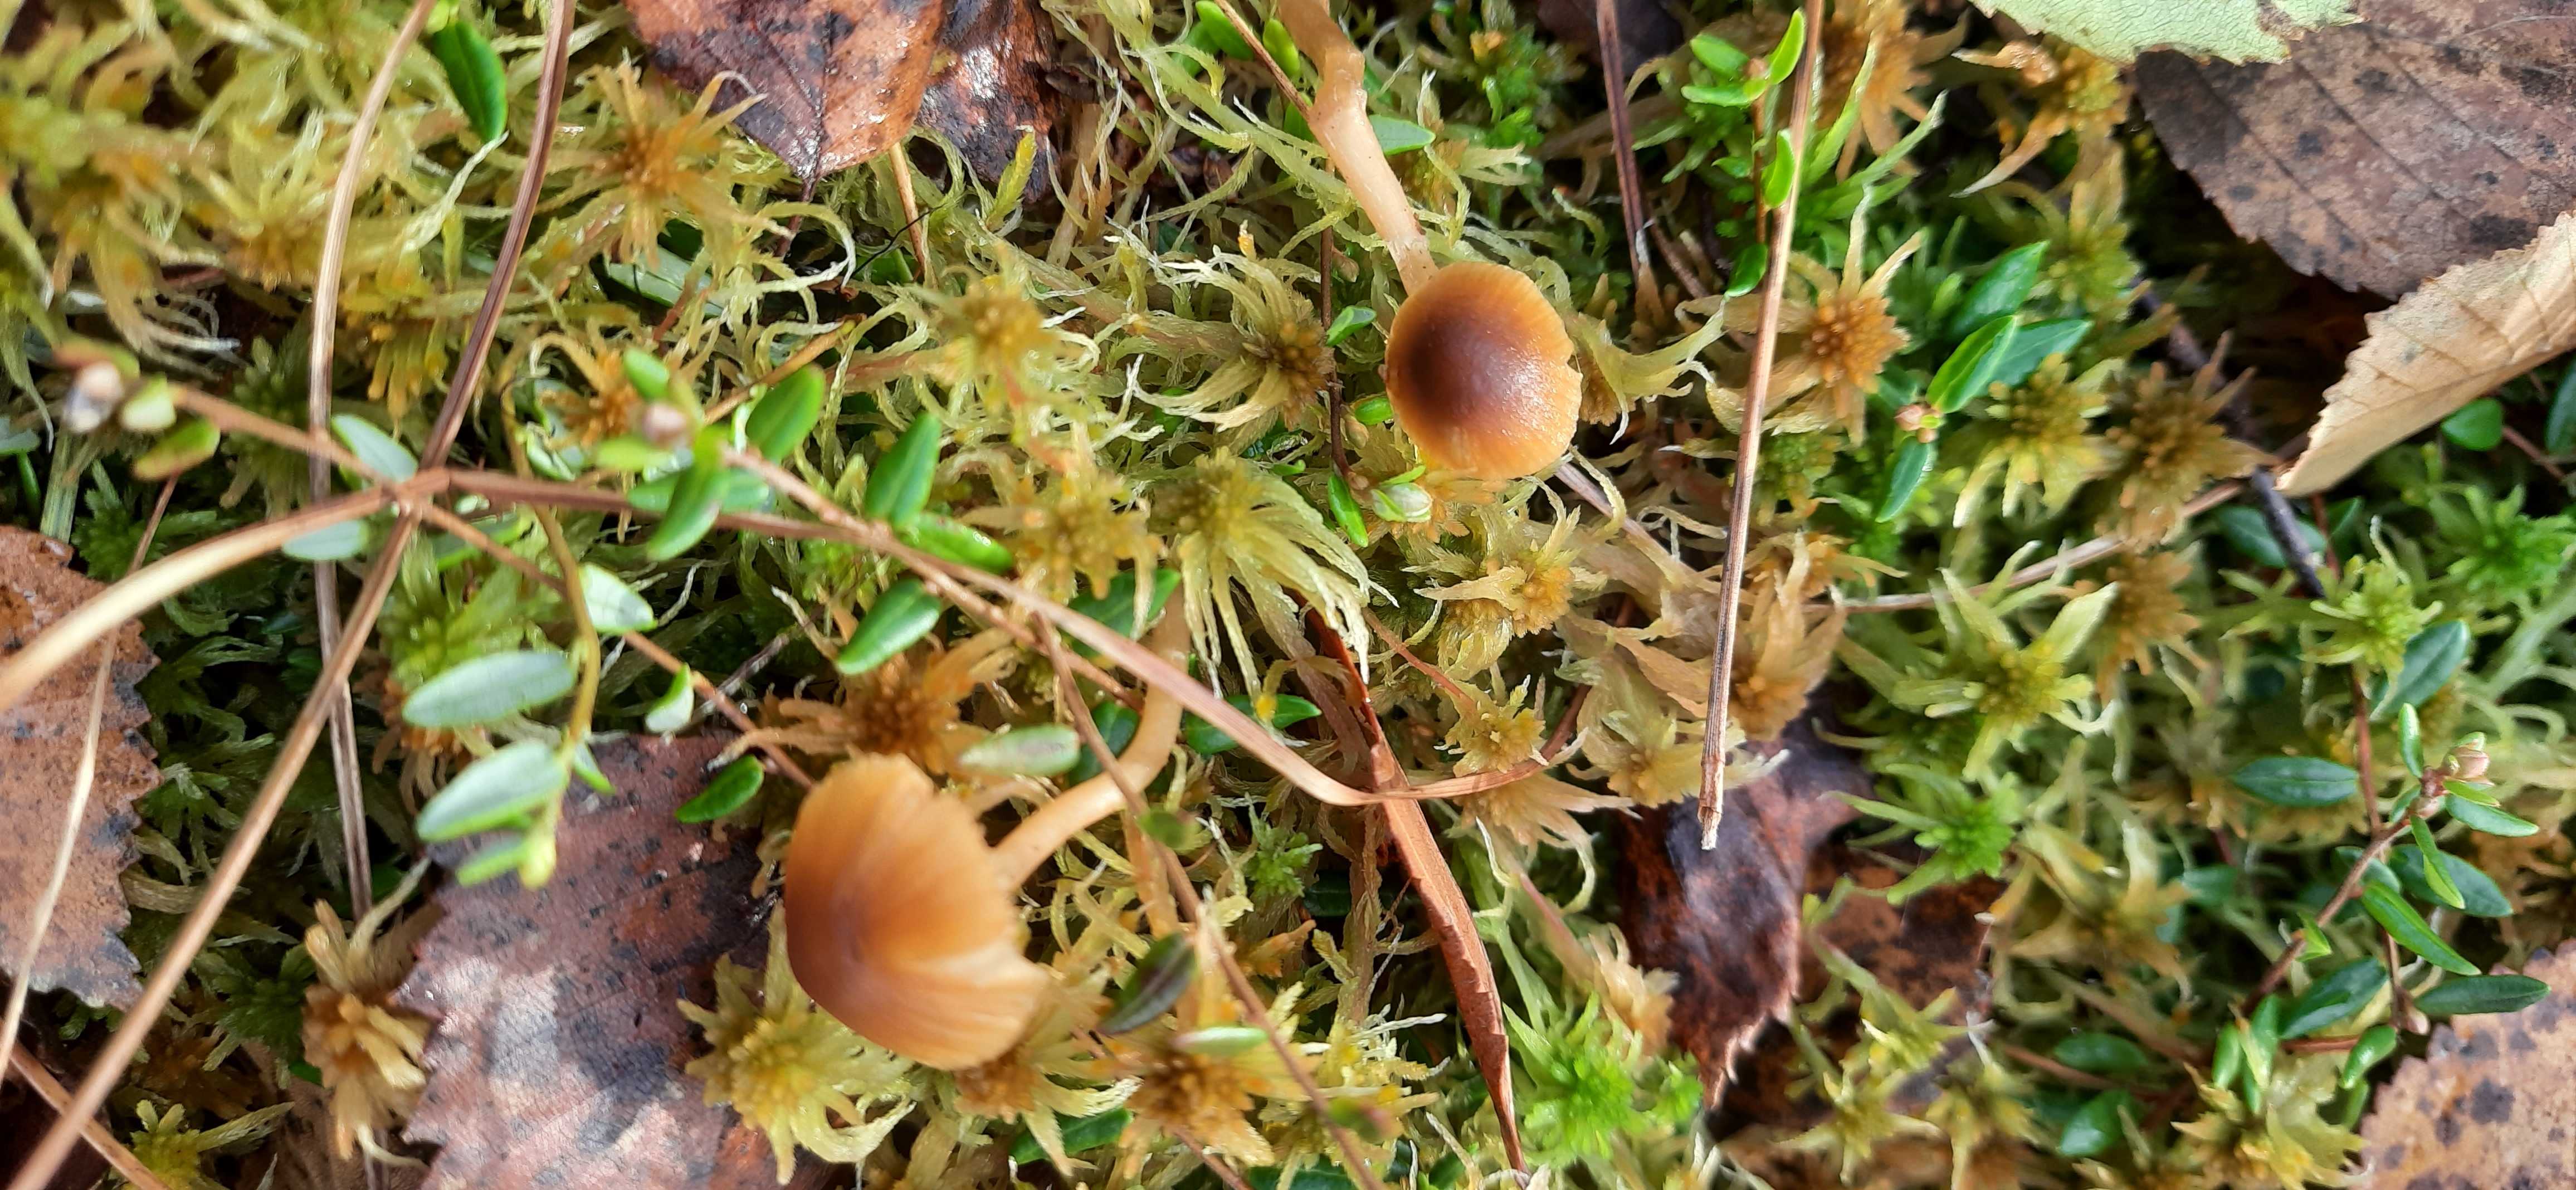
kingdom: Fungi
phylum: Basidiomycota
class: Agaricomycetes
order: Agaricales
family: Hymenogastraceae
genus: Galerina
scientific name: Galerina
